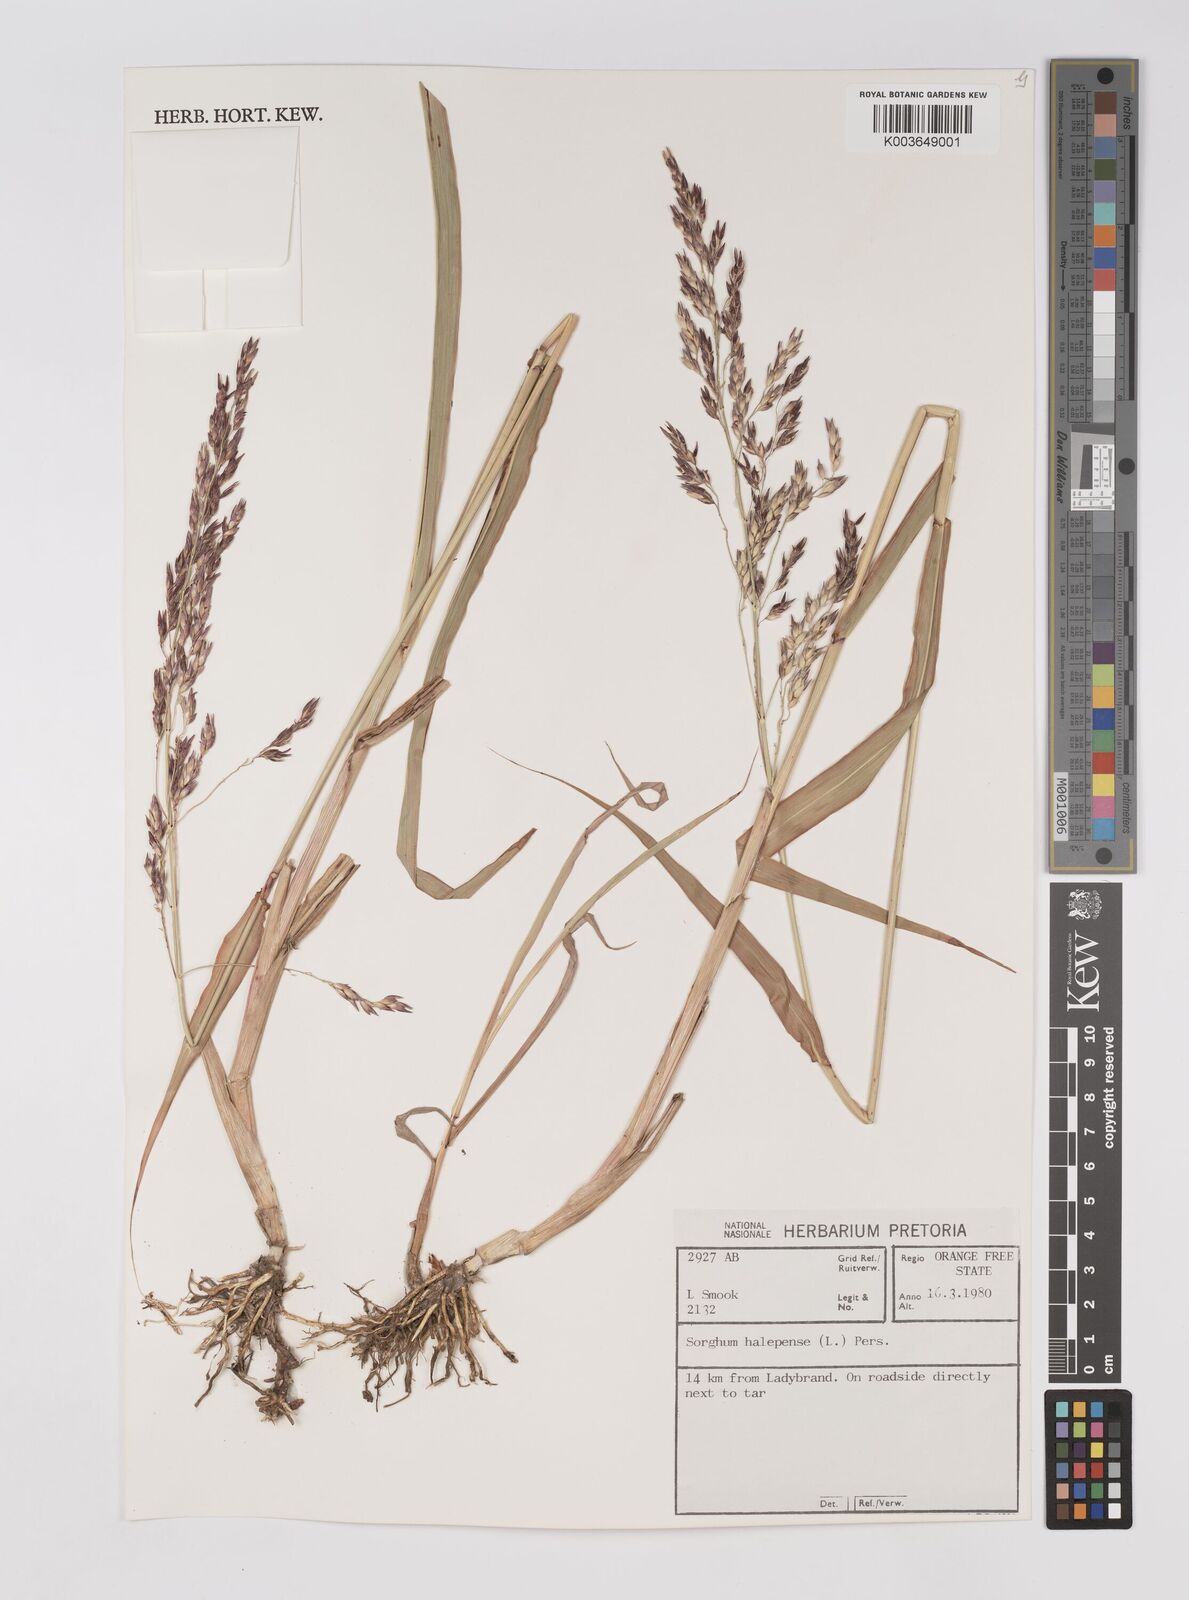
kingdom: Plantae
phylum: Tracheophyta
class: Liliopsida
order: Poales
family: Poaceae
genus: Sorghum
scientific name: Sorghum halepense
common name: Johnson-grass
